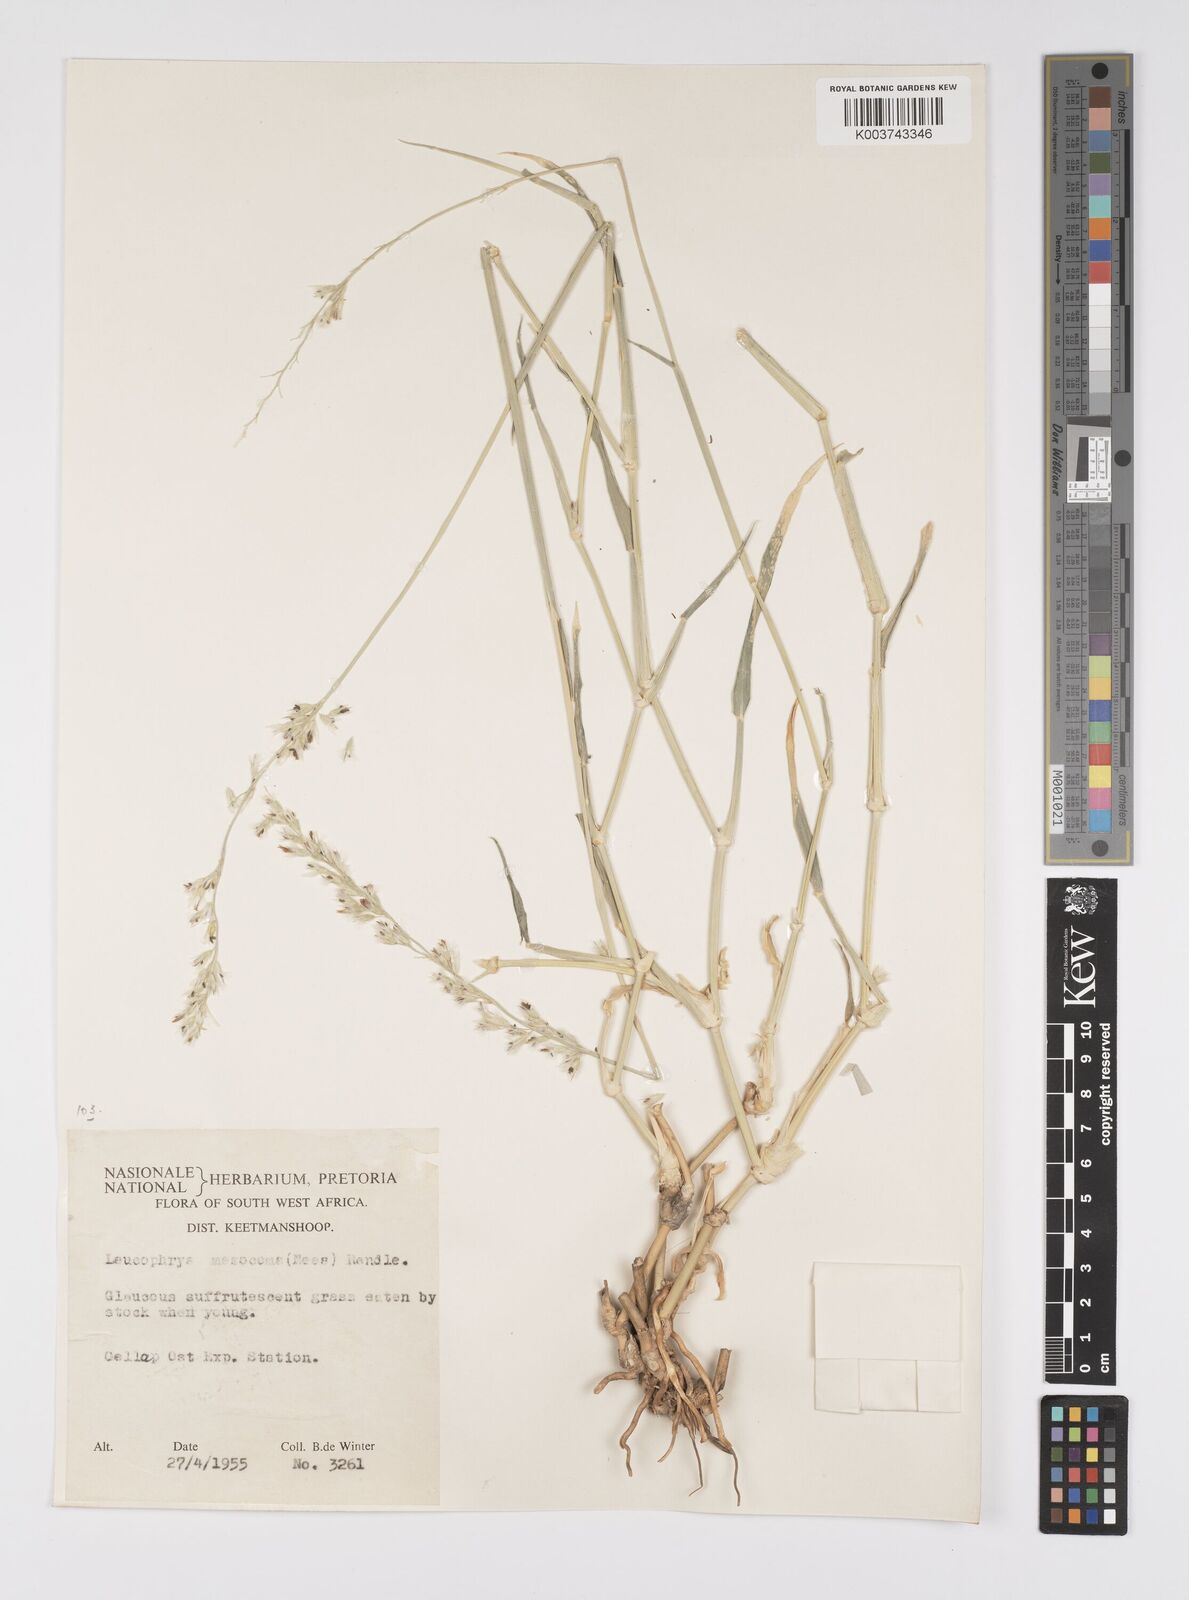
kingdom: Plantae
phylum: Tracheophyta
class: Liliopsida
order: Poales
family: Poaceae
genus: Urochloa
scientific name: Urochloa Brachiaria mesocoma
